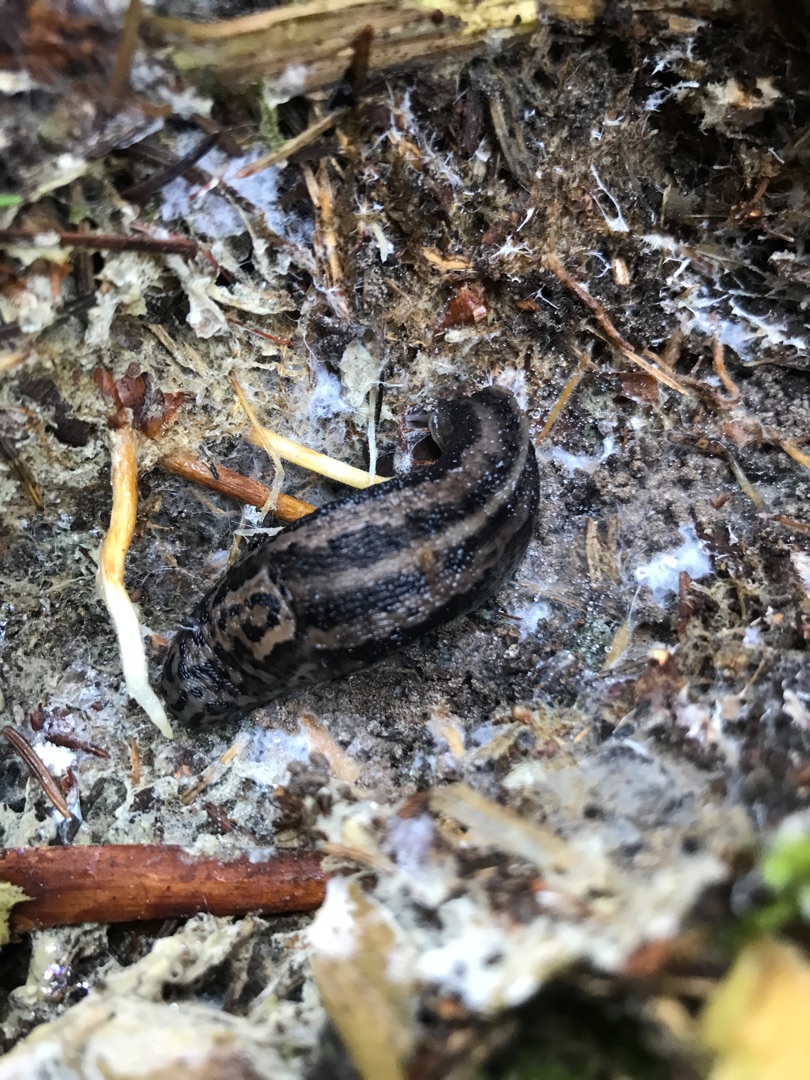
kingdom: Animalia
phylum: Mollusca
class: Gastropoda
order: Stylommatophora
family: Limacidae
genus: Limax
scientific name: Limax maximus
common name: Pantersnegl
